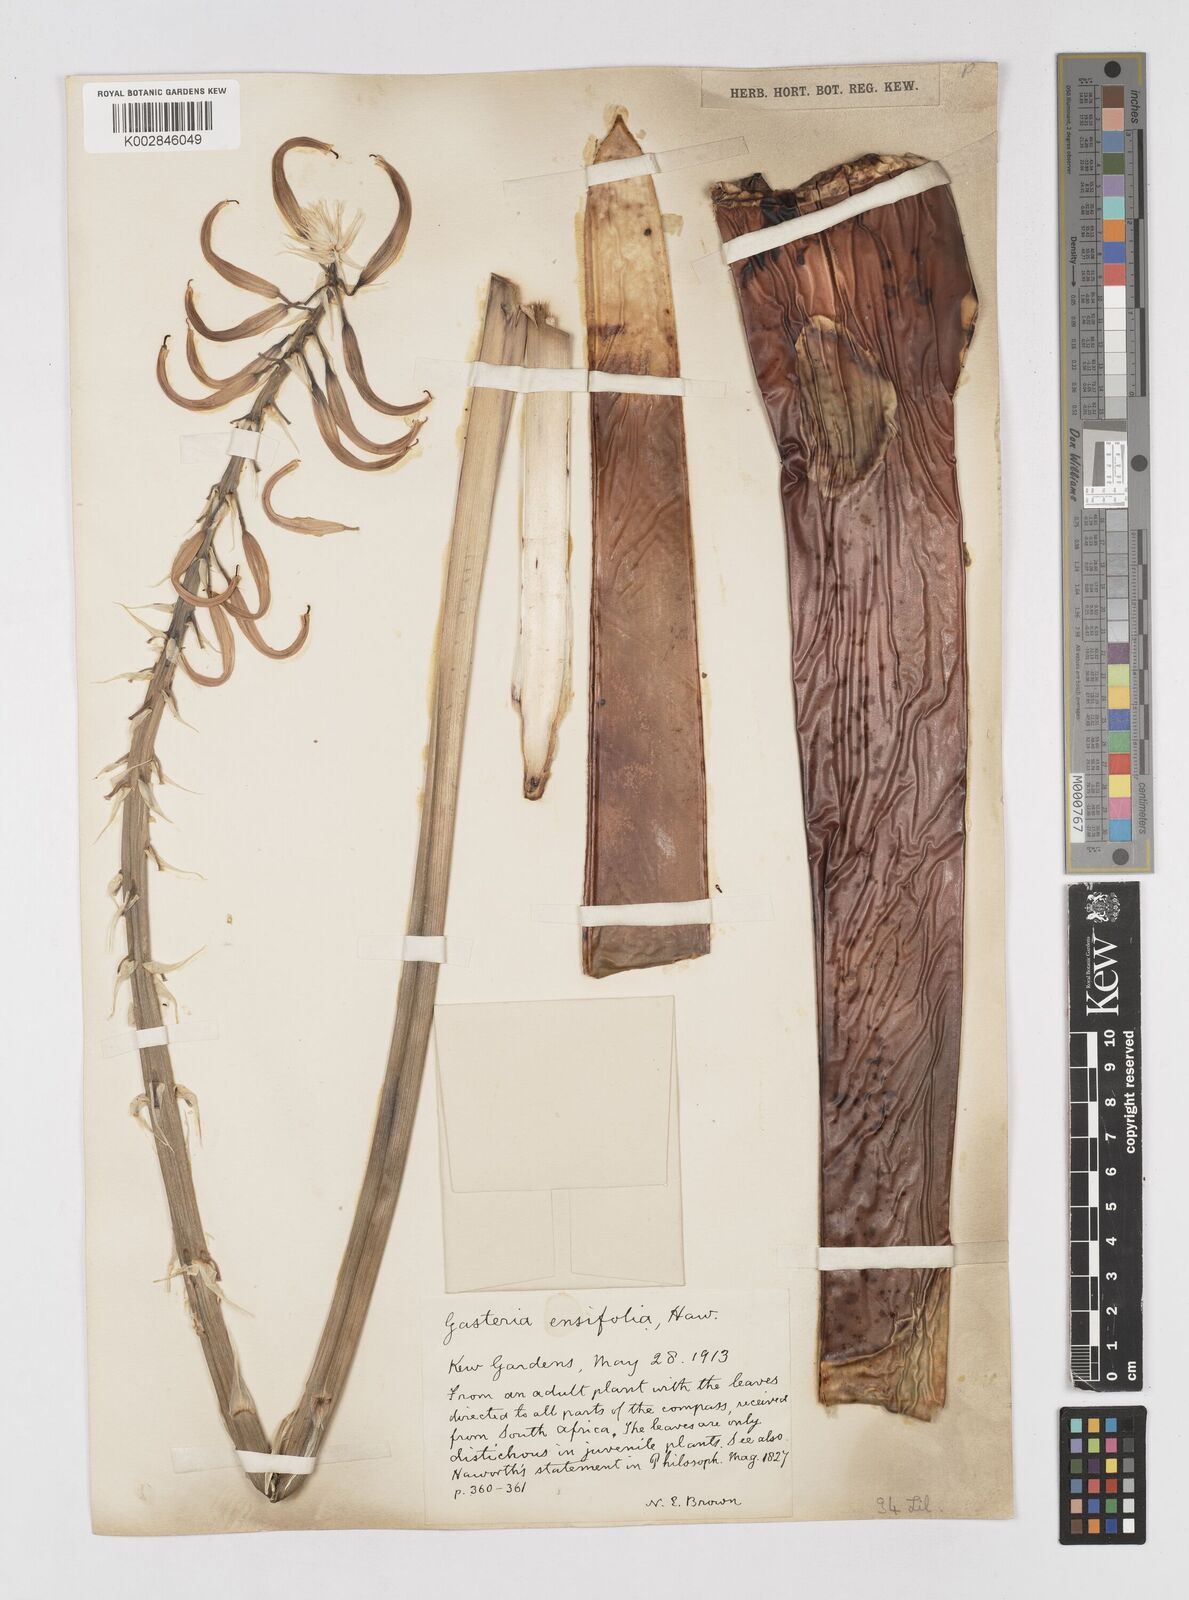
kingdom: Plantae
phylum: Tracheophyta
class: Liliopsida
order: Asparagales
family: Asphodelaceae
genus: Gasteria
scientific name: Gasteria acinacifolia
